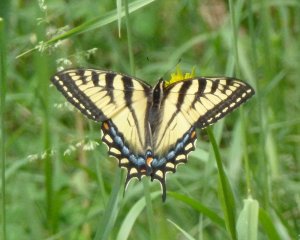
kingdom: Animalia
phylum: Arthropoda
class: Insecta
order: Lepidoptera
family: Papilionidae
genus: Pterourus
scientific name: Pterourus canadensis
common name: Canadian Tiger Swallowtail
